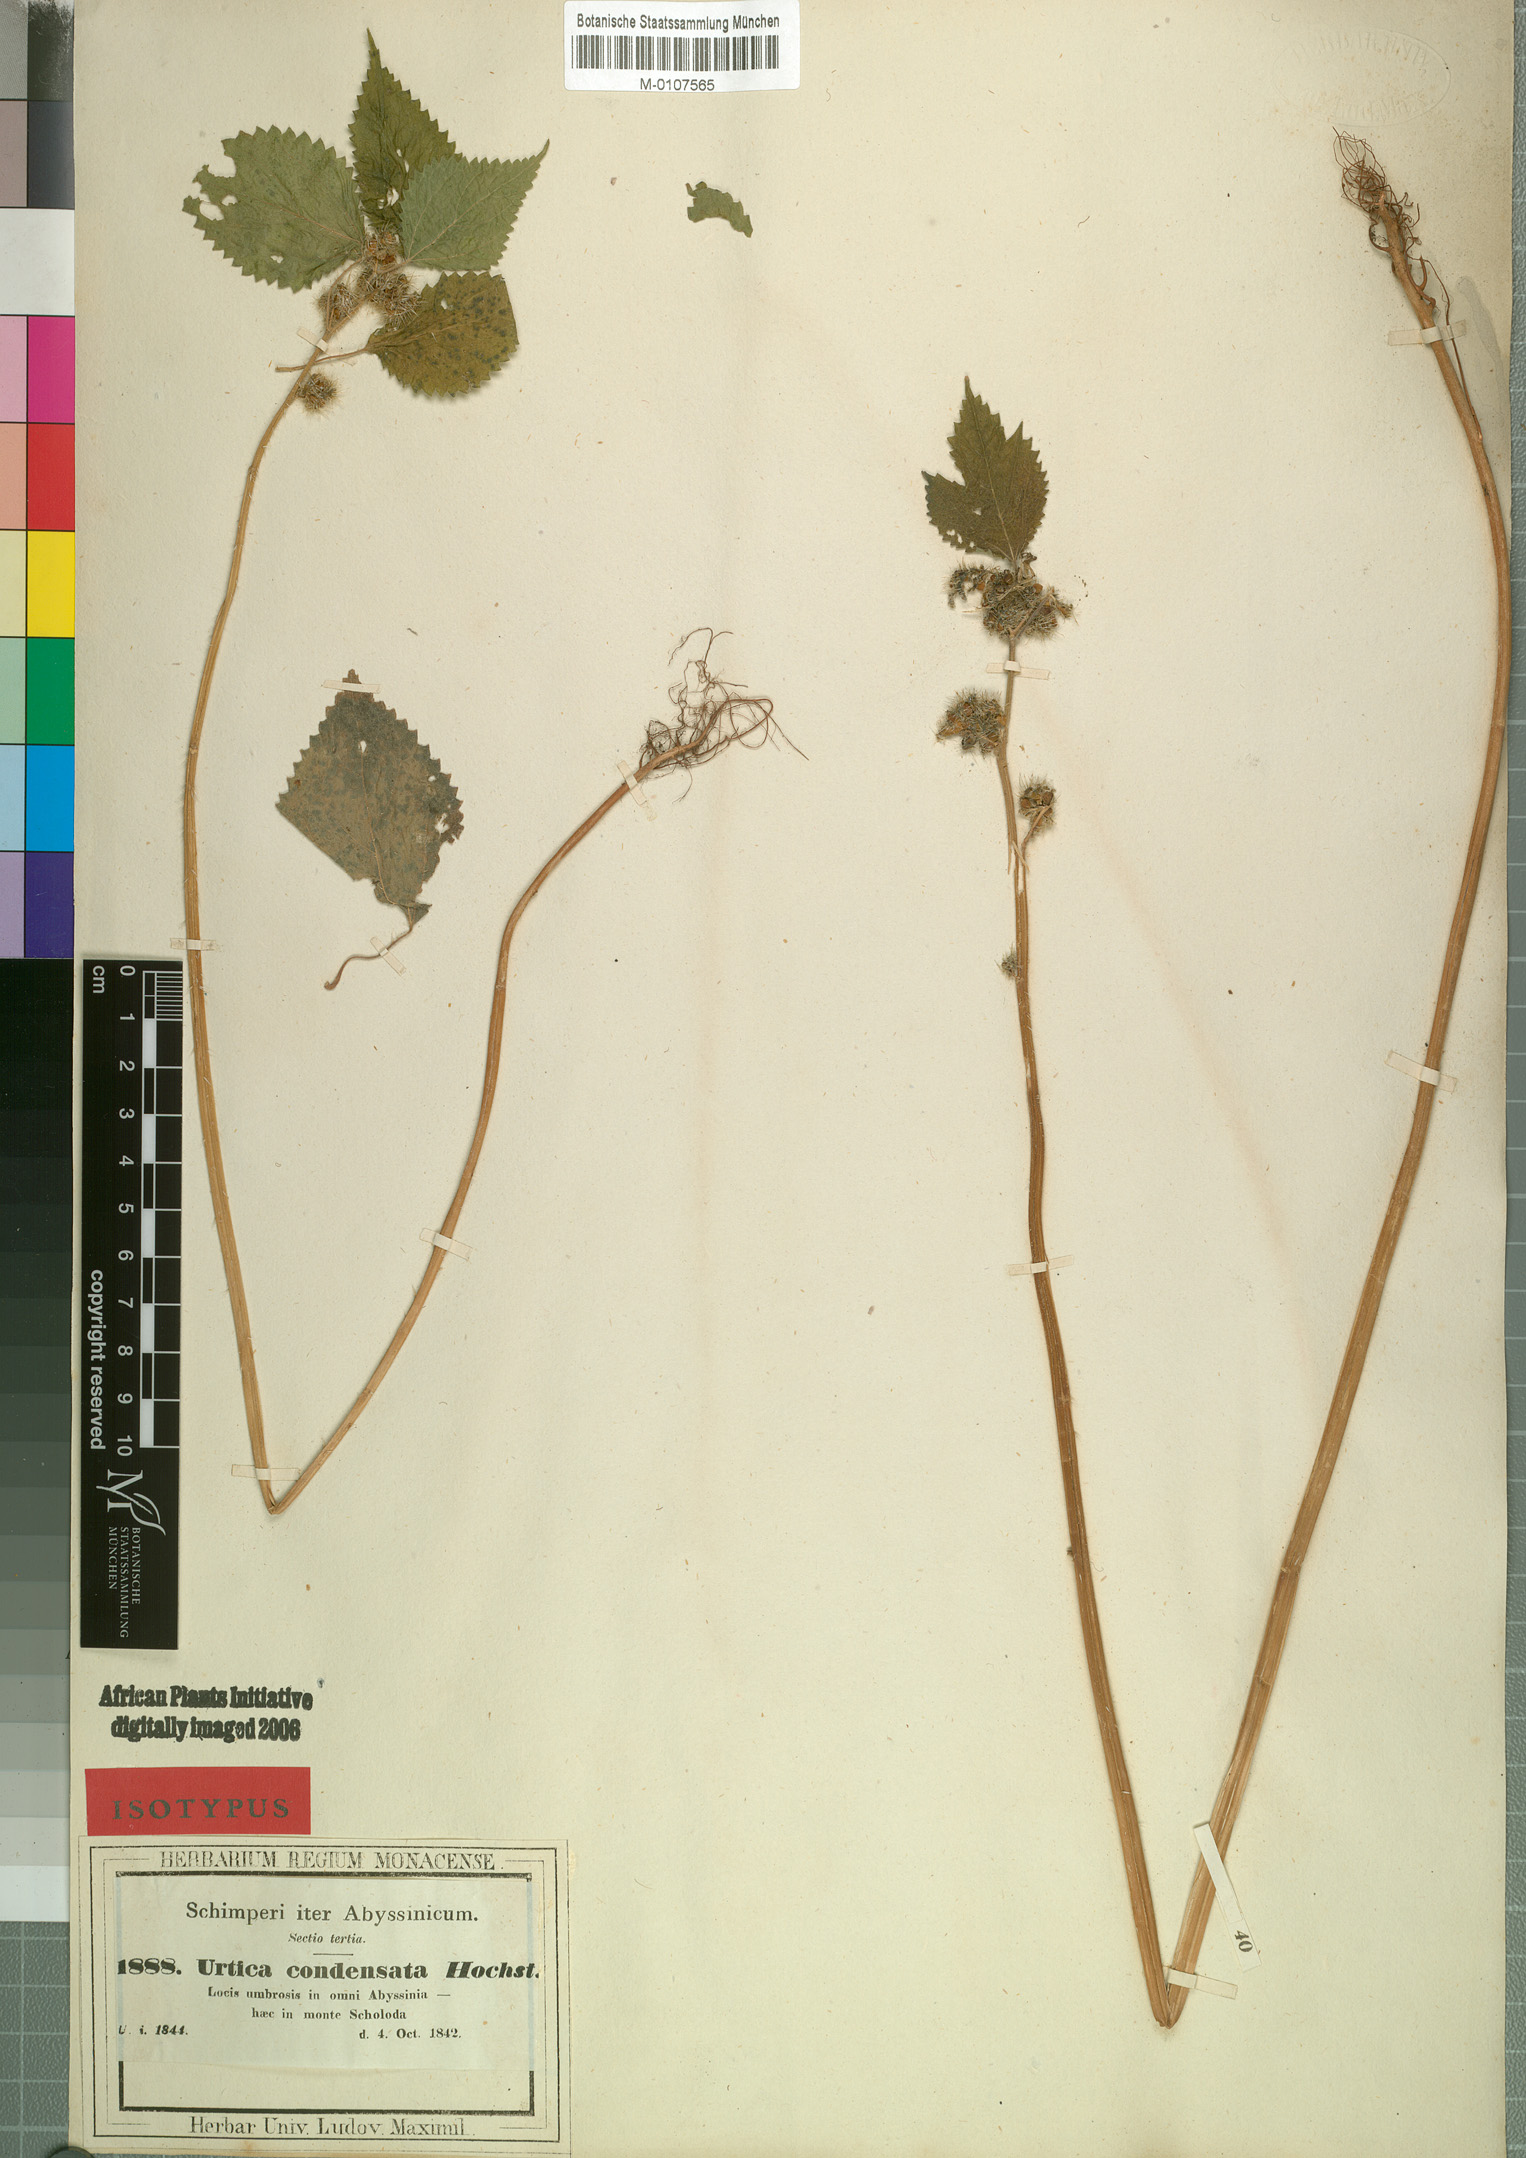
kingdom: Plantae
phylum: Tracheophyta
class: Magnoliopsida
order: Rosales
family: Urticaceae
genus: Girardinia
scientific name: Girardinia diversifolia
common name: Himalayan-nettle
